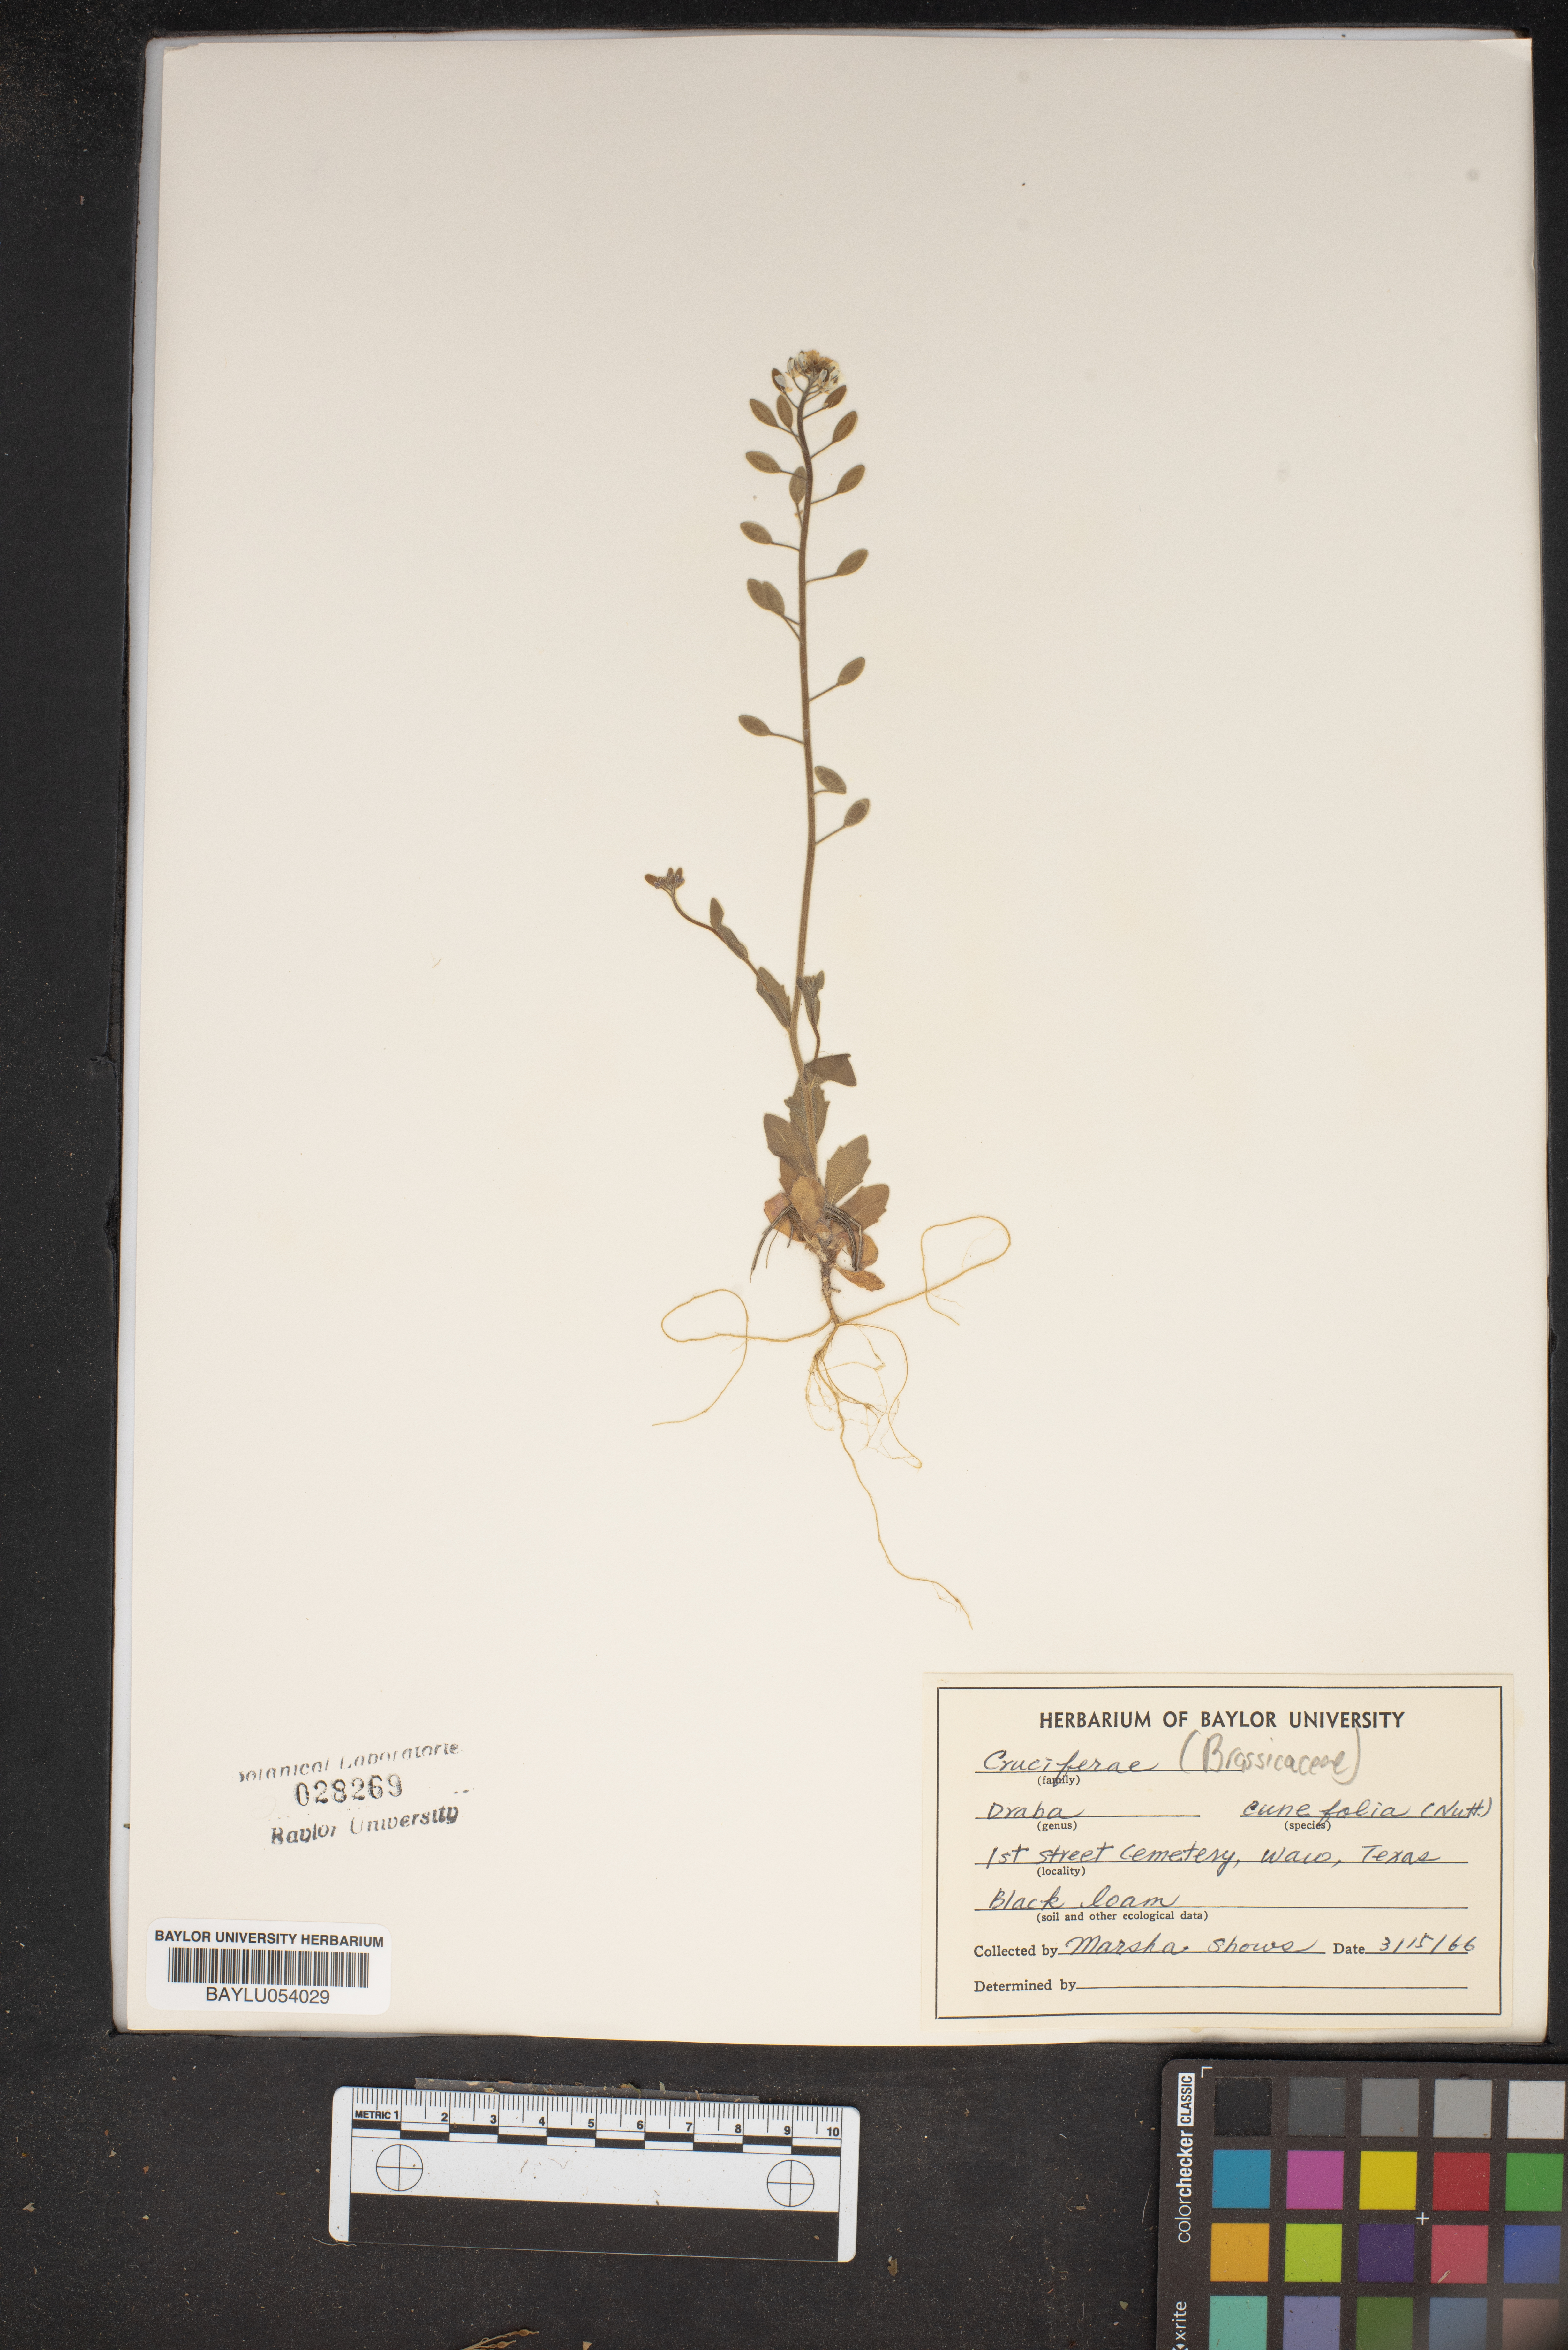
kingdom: Plantae
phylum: Tracheophyta
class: Magnoliopsida
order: Brassicales
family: Brassicaceae
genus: Tomostima
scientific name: Tomostima cuneifolia
